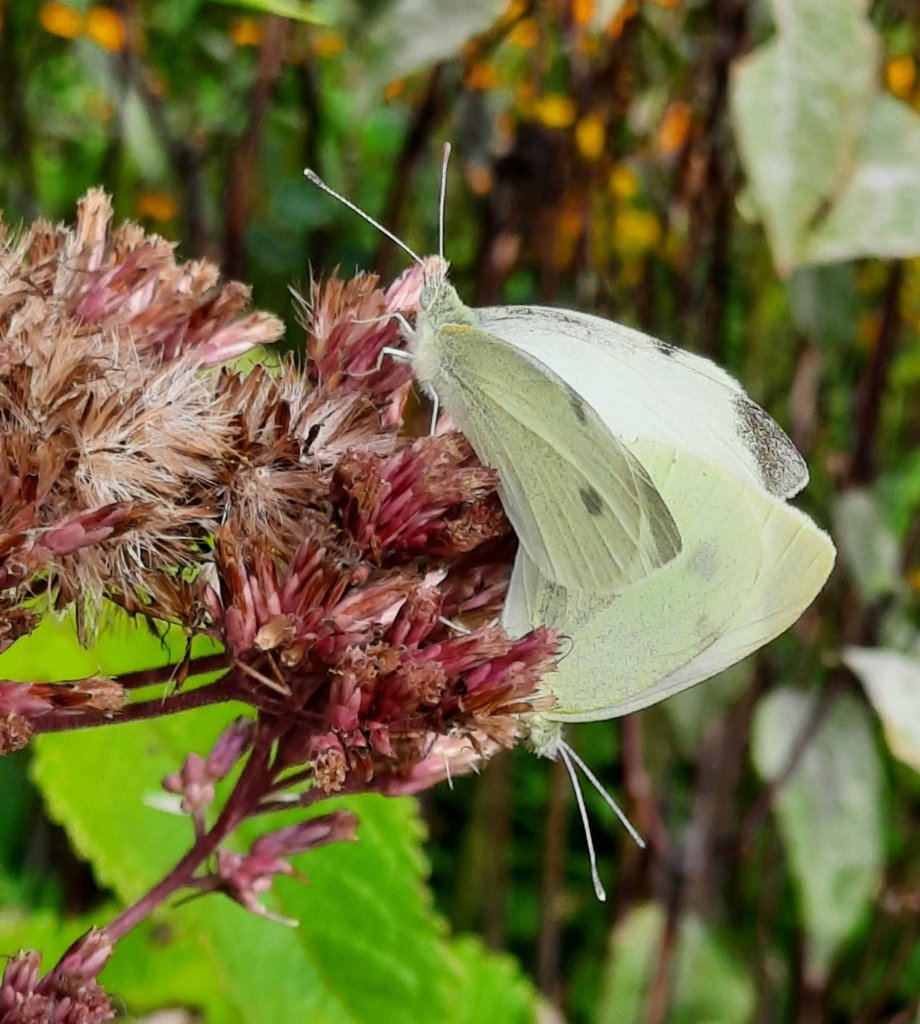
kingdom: Animalia
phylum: Arthropoda
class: Insecta
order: Lepidoptera
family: Pieridae
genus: Pieris
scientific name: Pieris rapae
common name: Cabbage White
